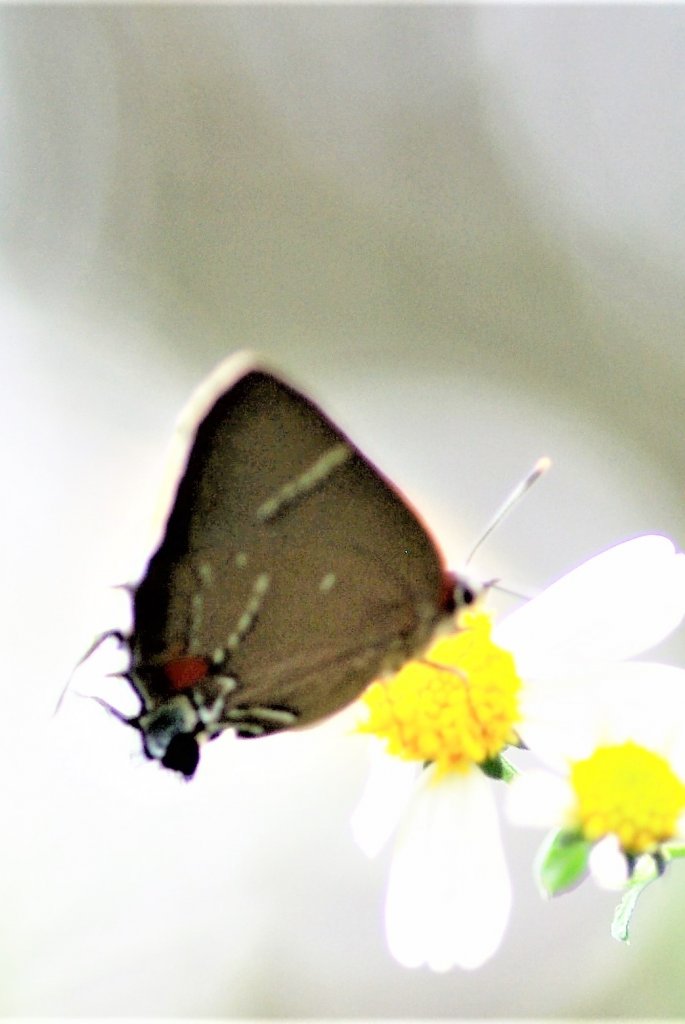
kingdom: Animalia
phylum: Arthropoda
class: Insecta
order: Lepidoptera
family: Lycaenidae
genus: Parrhasius
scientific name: Parrhasius m-album
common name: White-m Hairstreak
